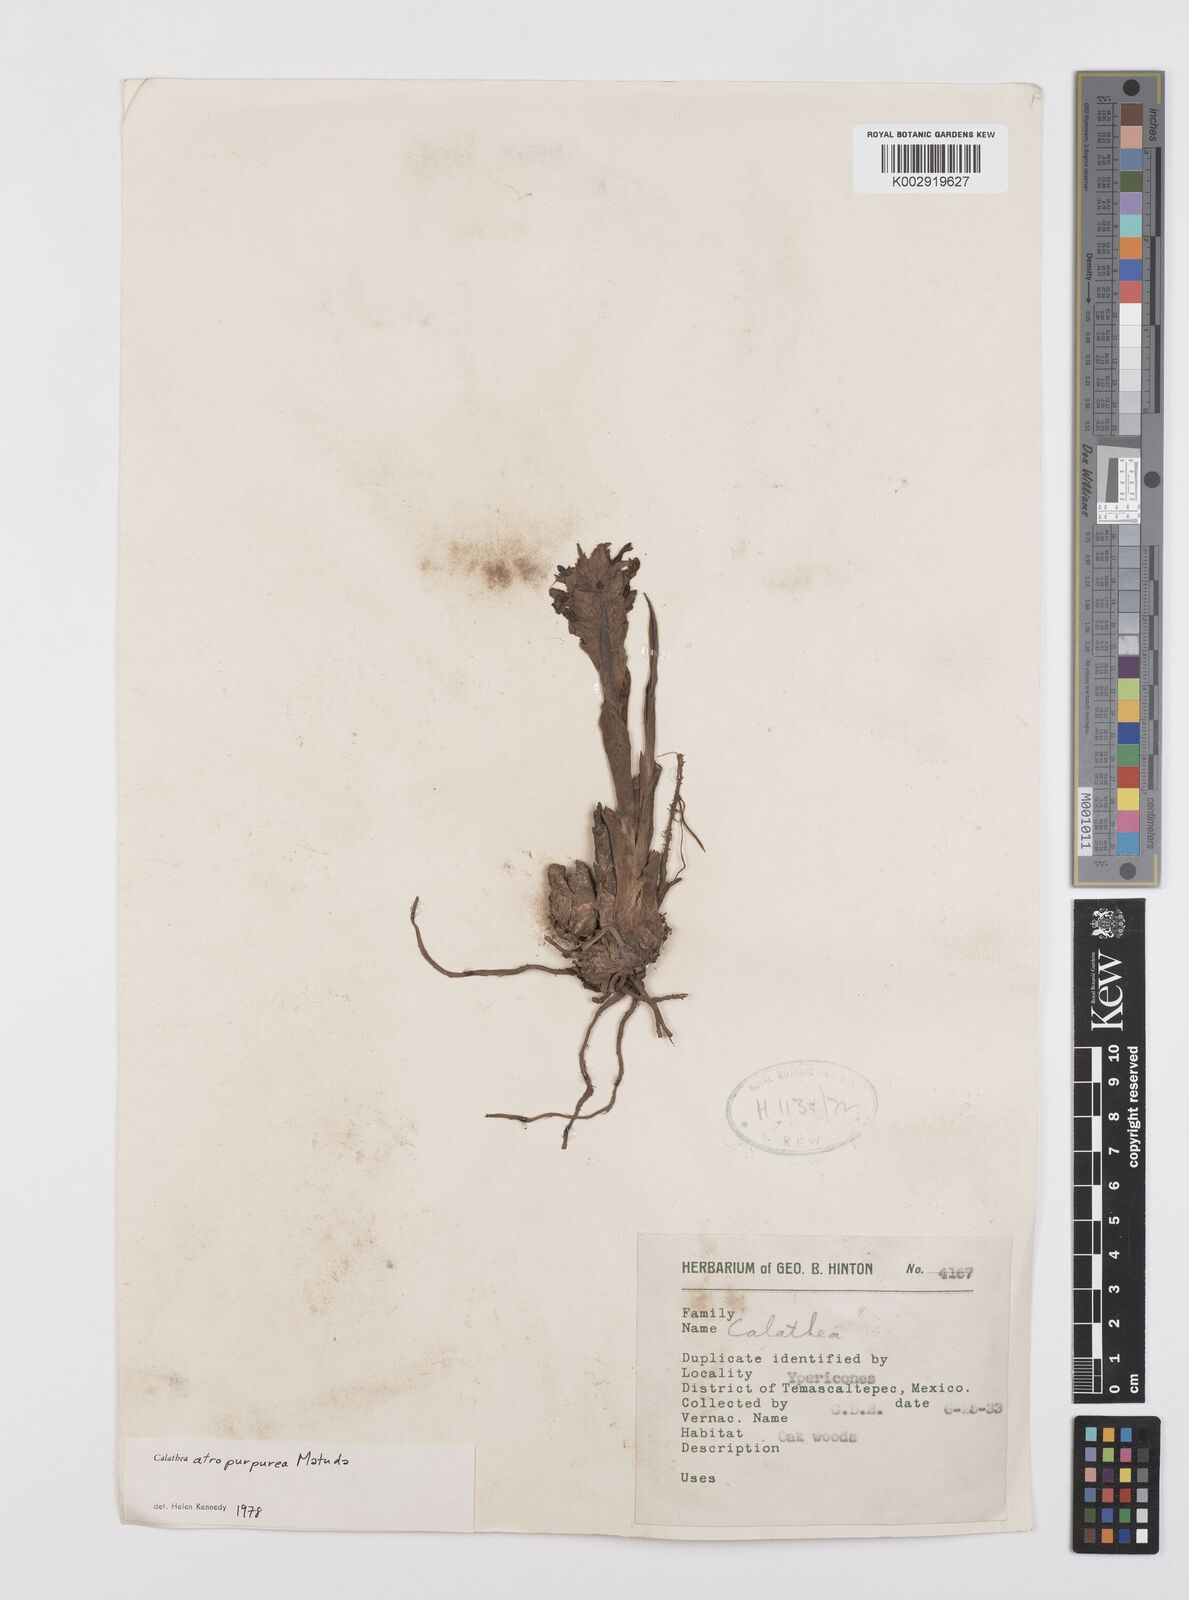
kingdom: Plantae
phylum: Tracheophyta
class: Liliopsida
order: Zingiberales
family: Marantaceae
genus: Goeppertia
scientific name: Goeppertia atropurpurea
